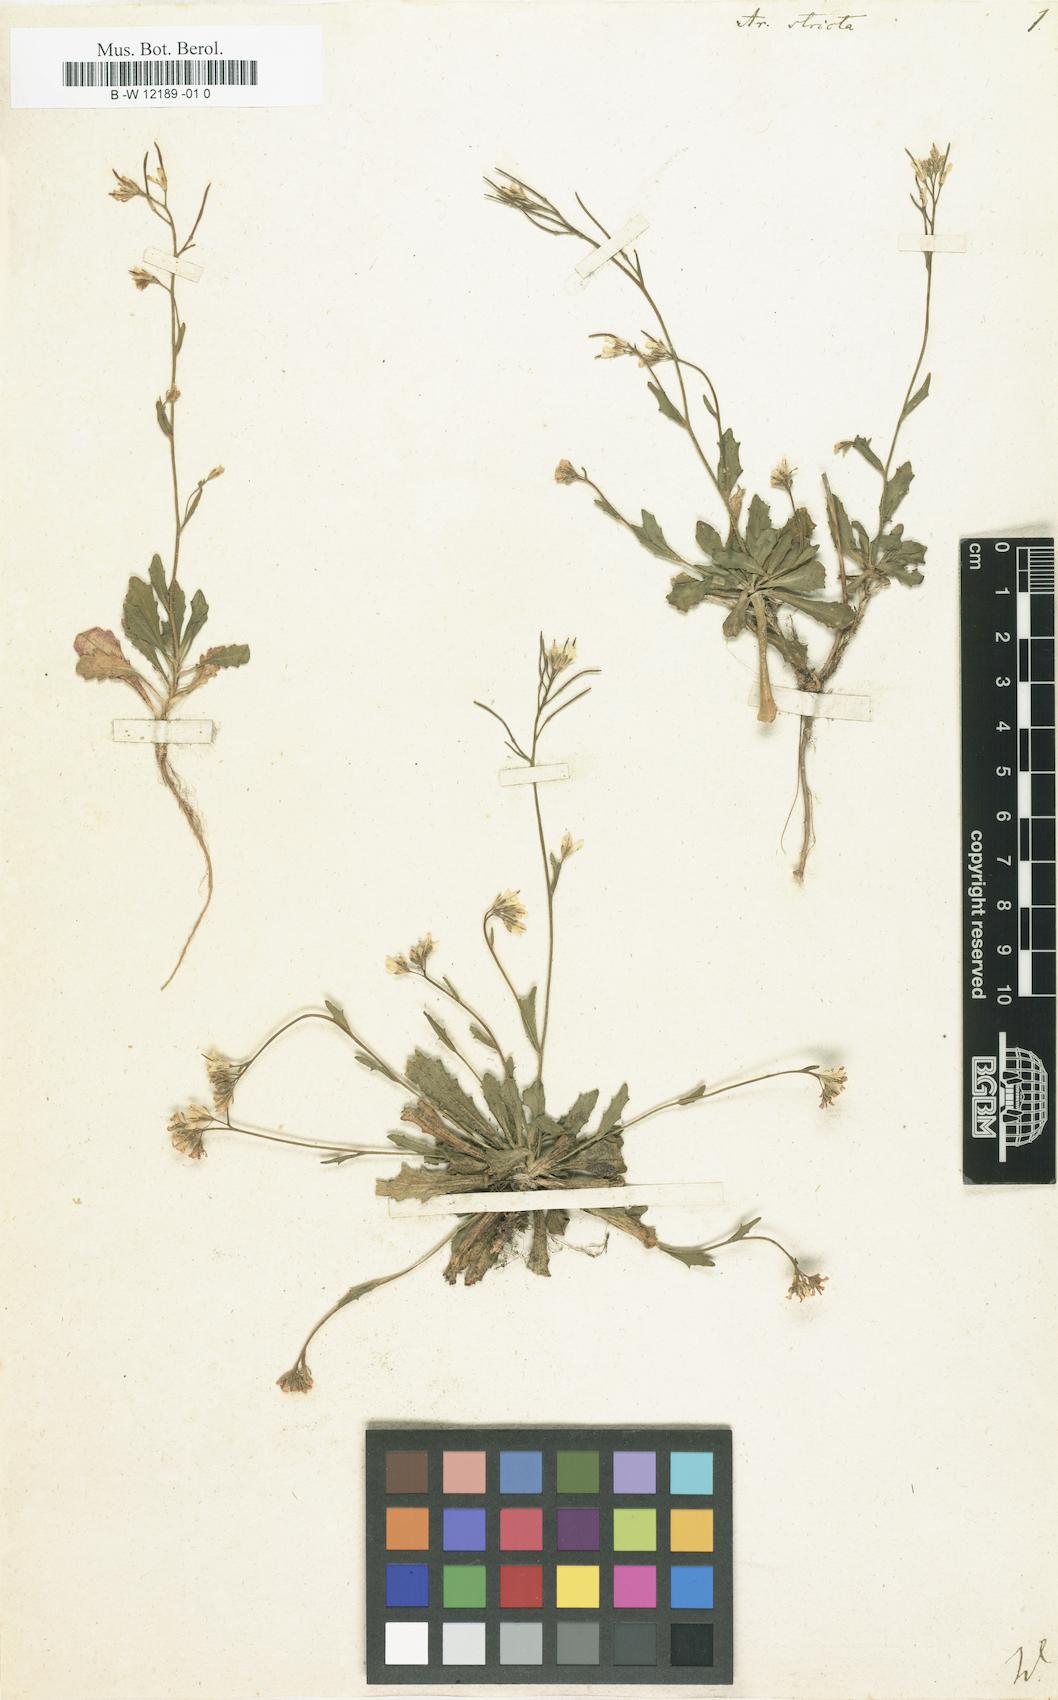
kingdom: Plantae
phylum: Tracheophyta
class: Magnoliopsida
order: Brassicales
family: Brassicaceae
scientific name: Brassicaceae
